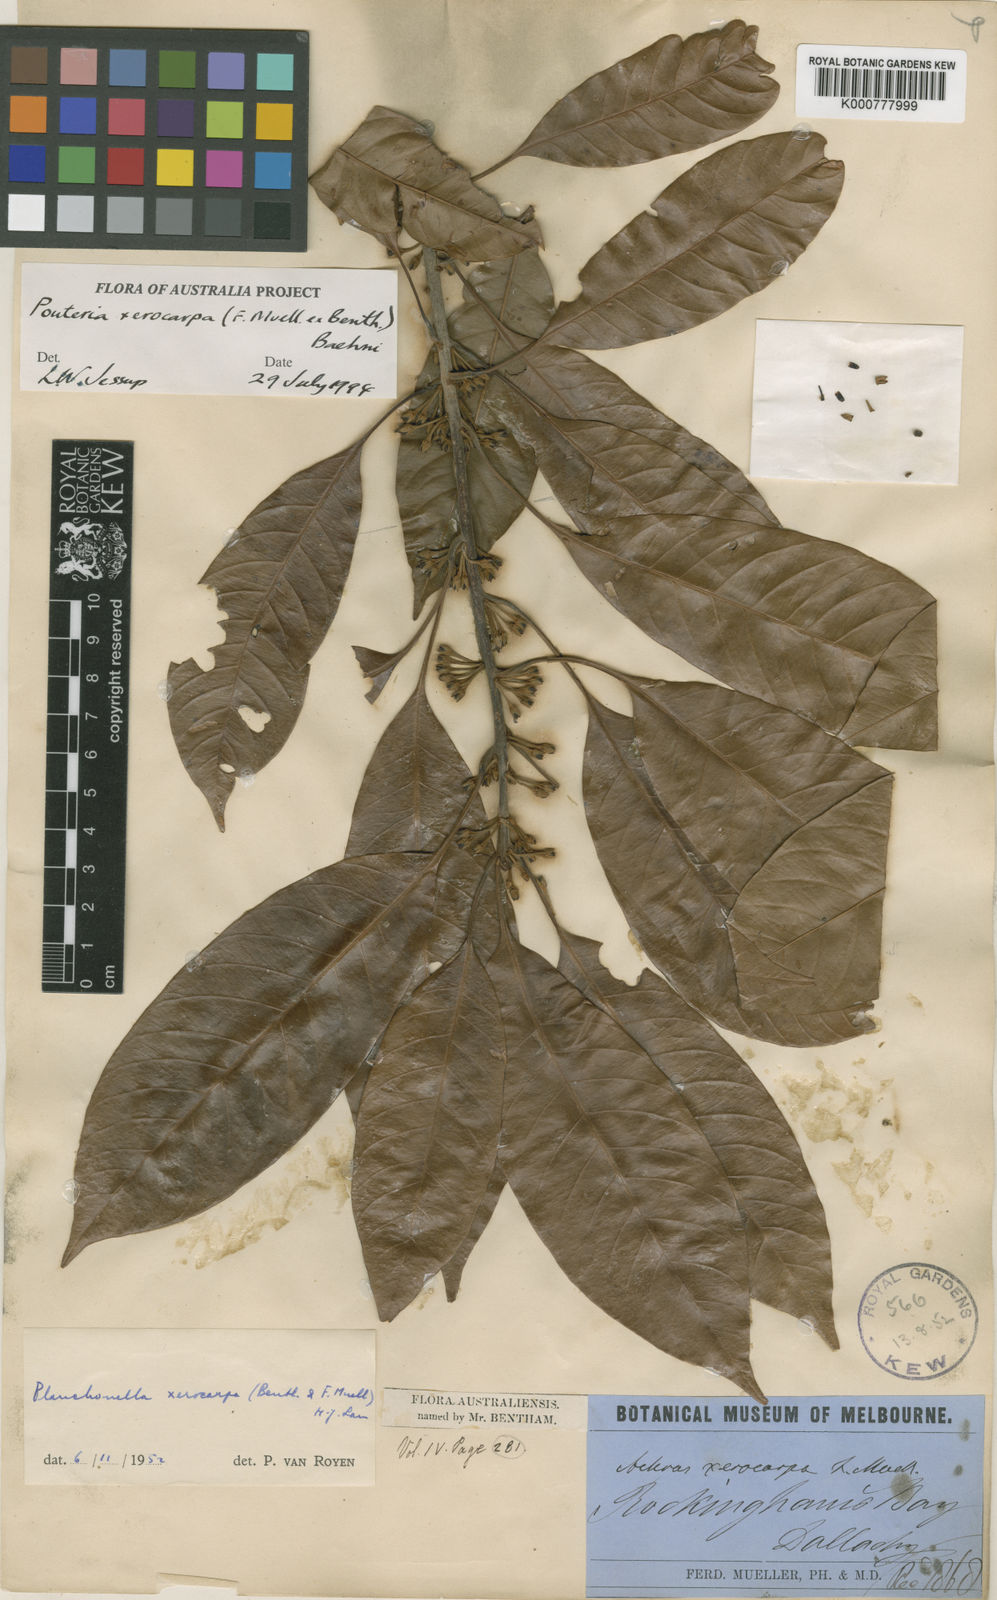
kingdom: Plantae
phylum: Tracheophyta
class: Magnoliopsida
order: Ericales
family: Sapotaceae
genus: Pleioluma
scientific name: Pleioluma xerocarpa
